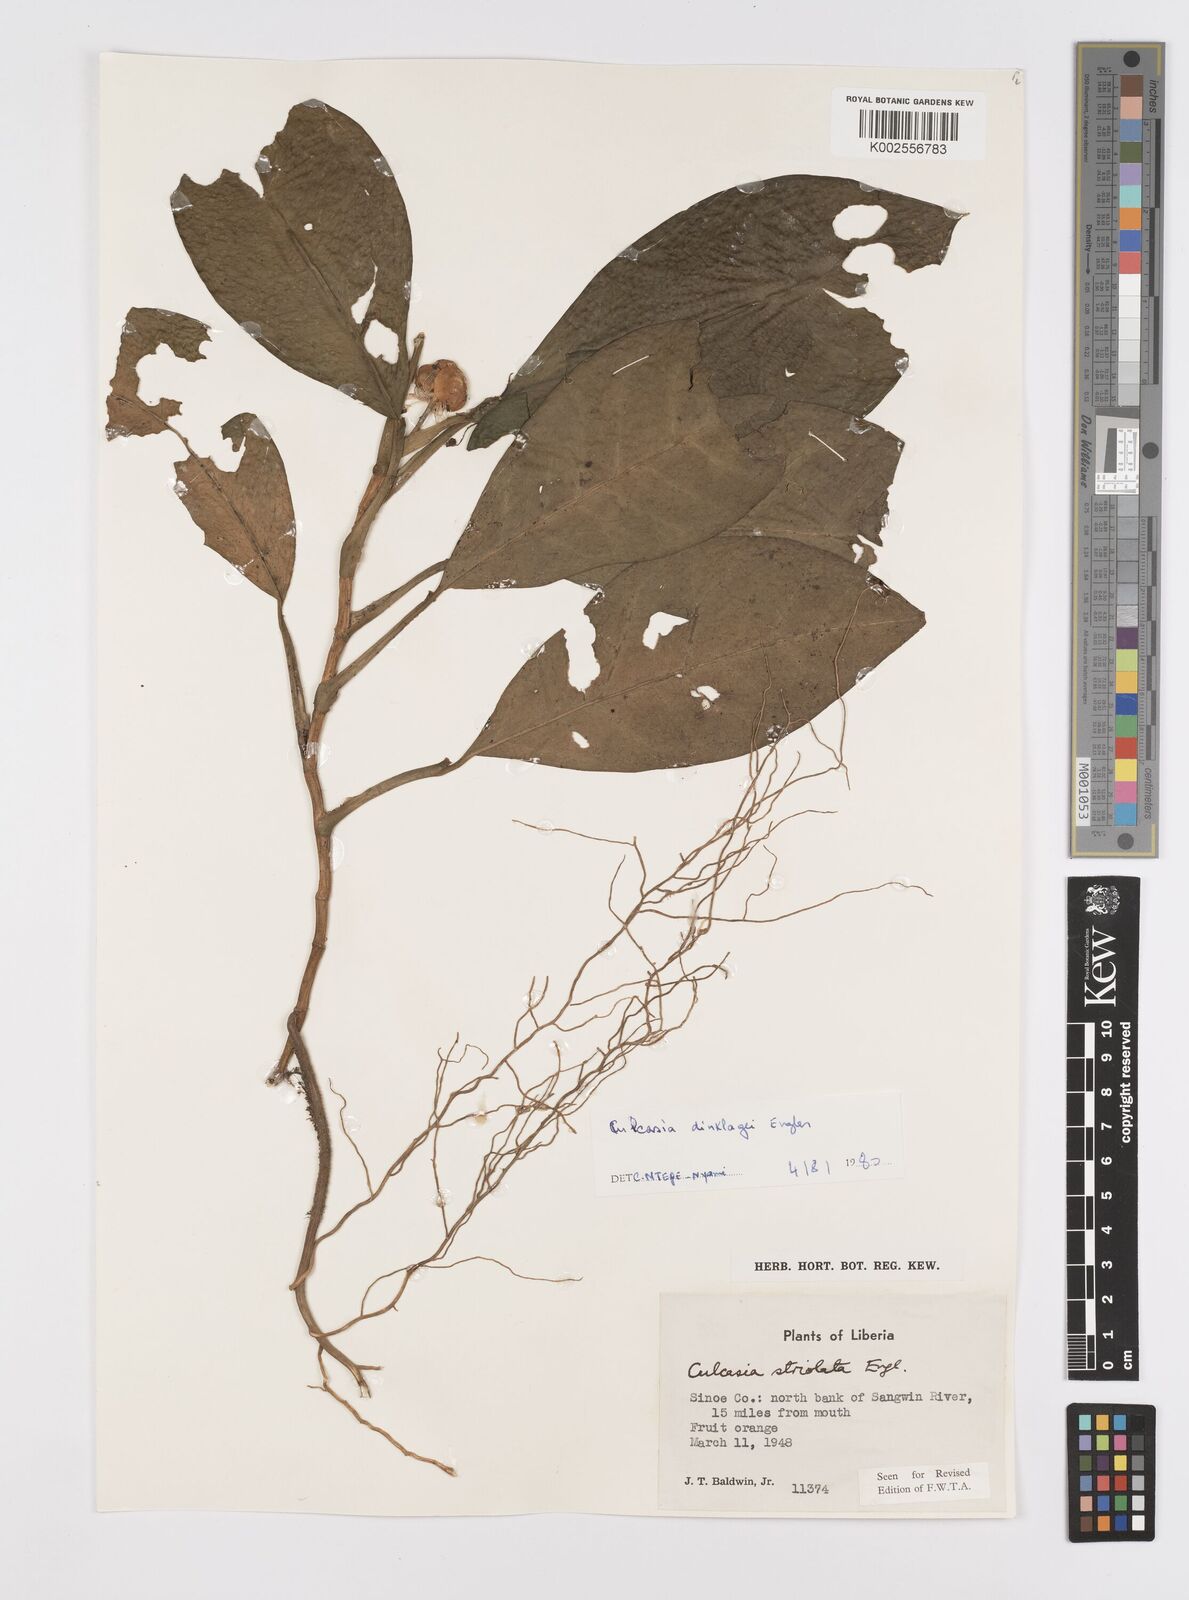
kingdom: Plantae
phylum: Tracheophyta
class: Liliopsida
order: Alismatales
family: Araceae
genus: Culcasia
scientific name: Culcasia dinklagei
